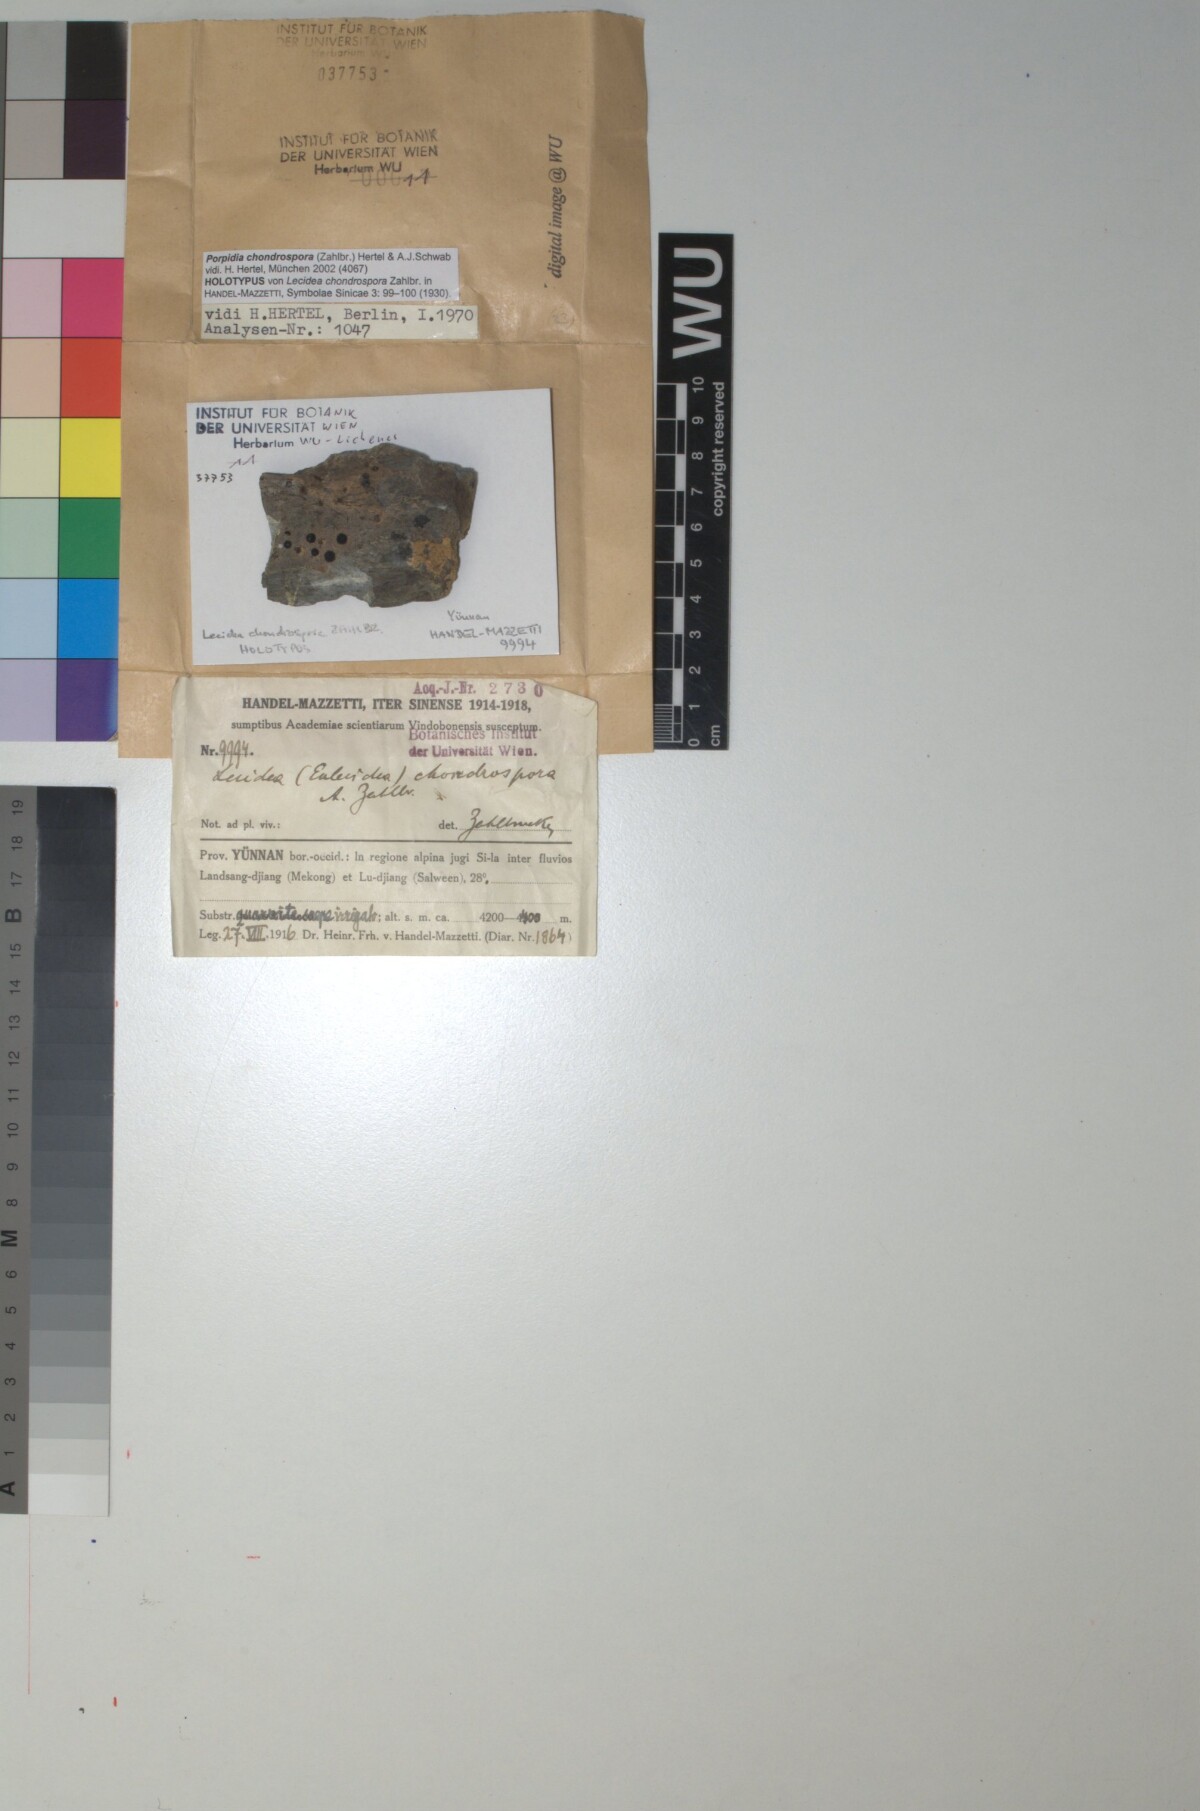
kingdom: Fungi
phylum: Ascomycota
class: Lecanoromycetes
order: Lecideales
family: Lecideaceae
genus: Lecidea
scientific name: Lecidea
